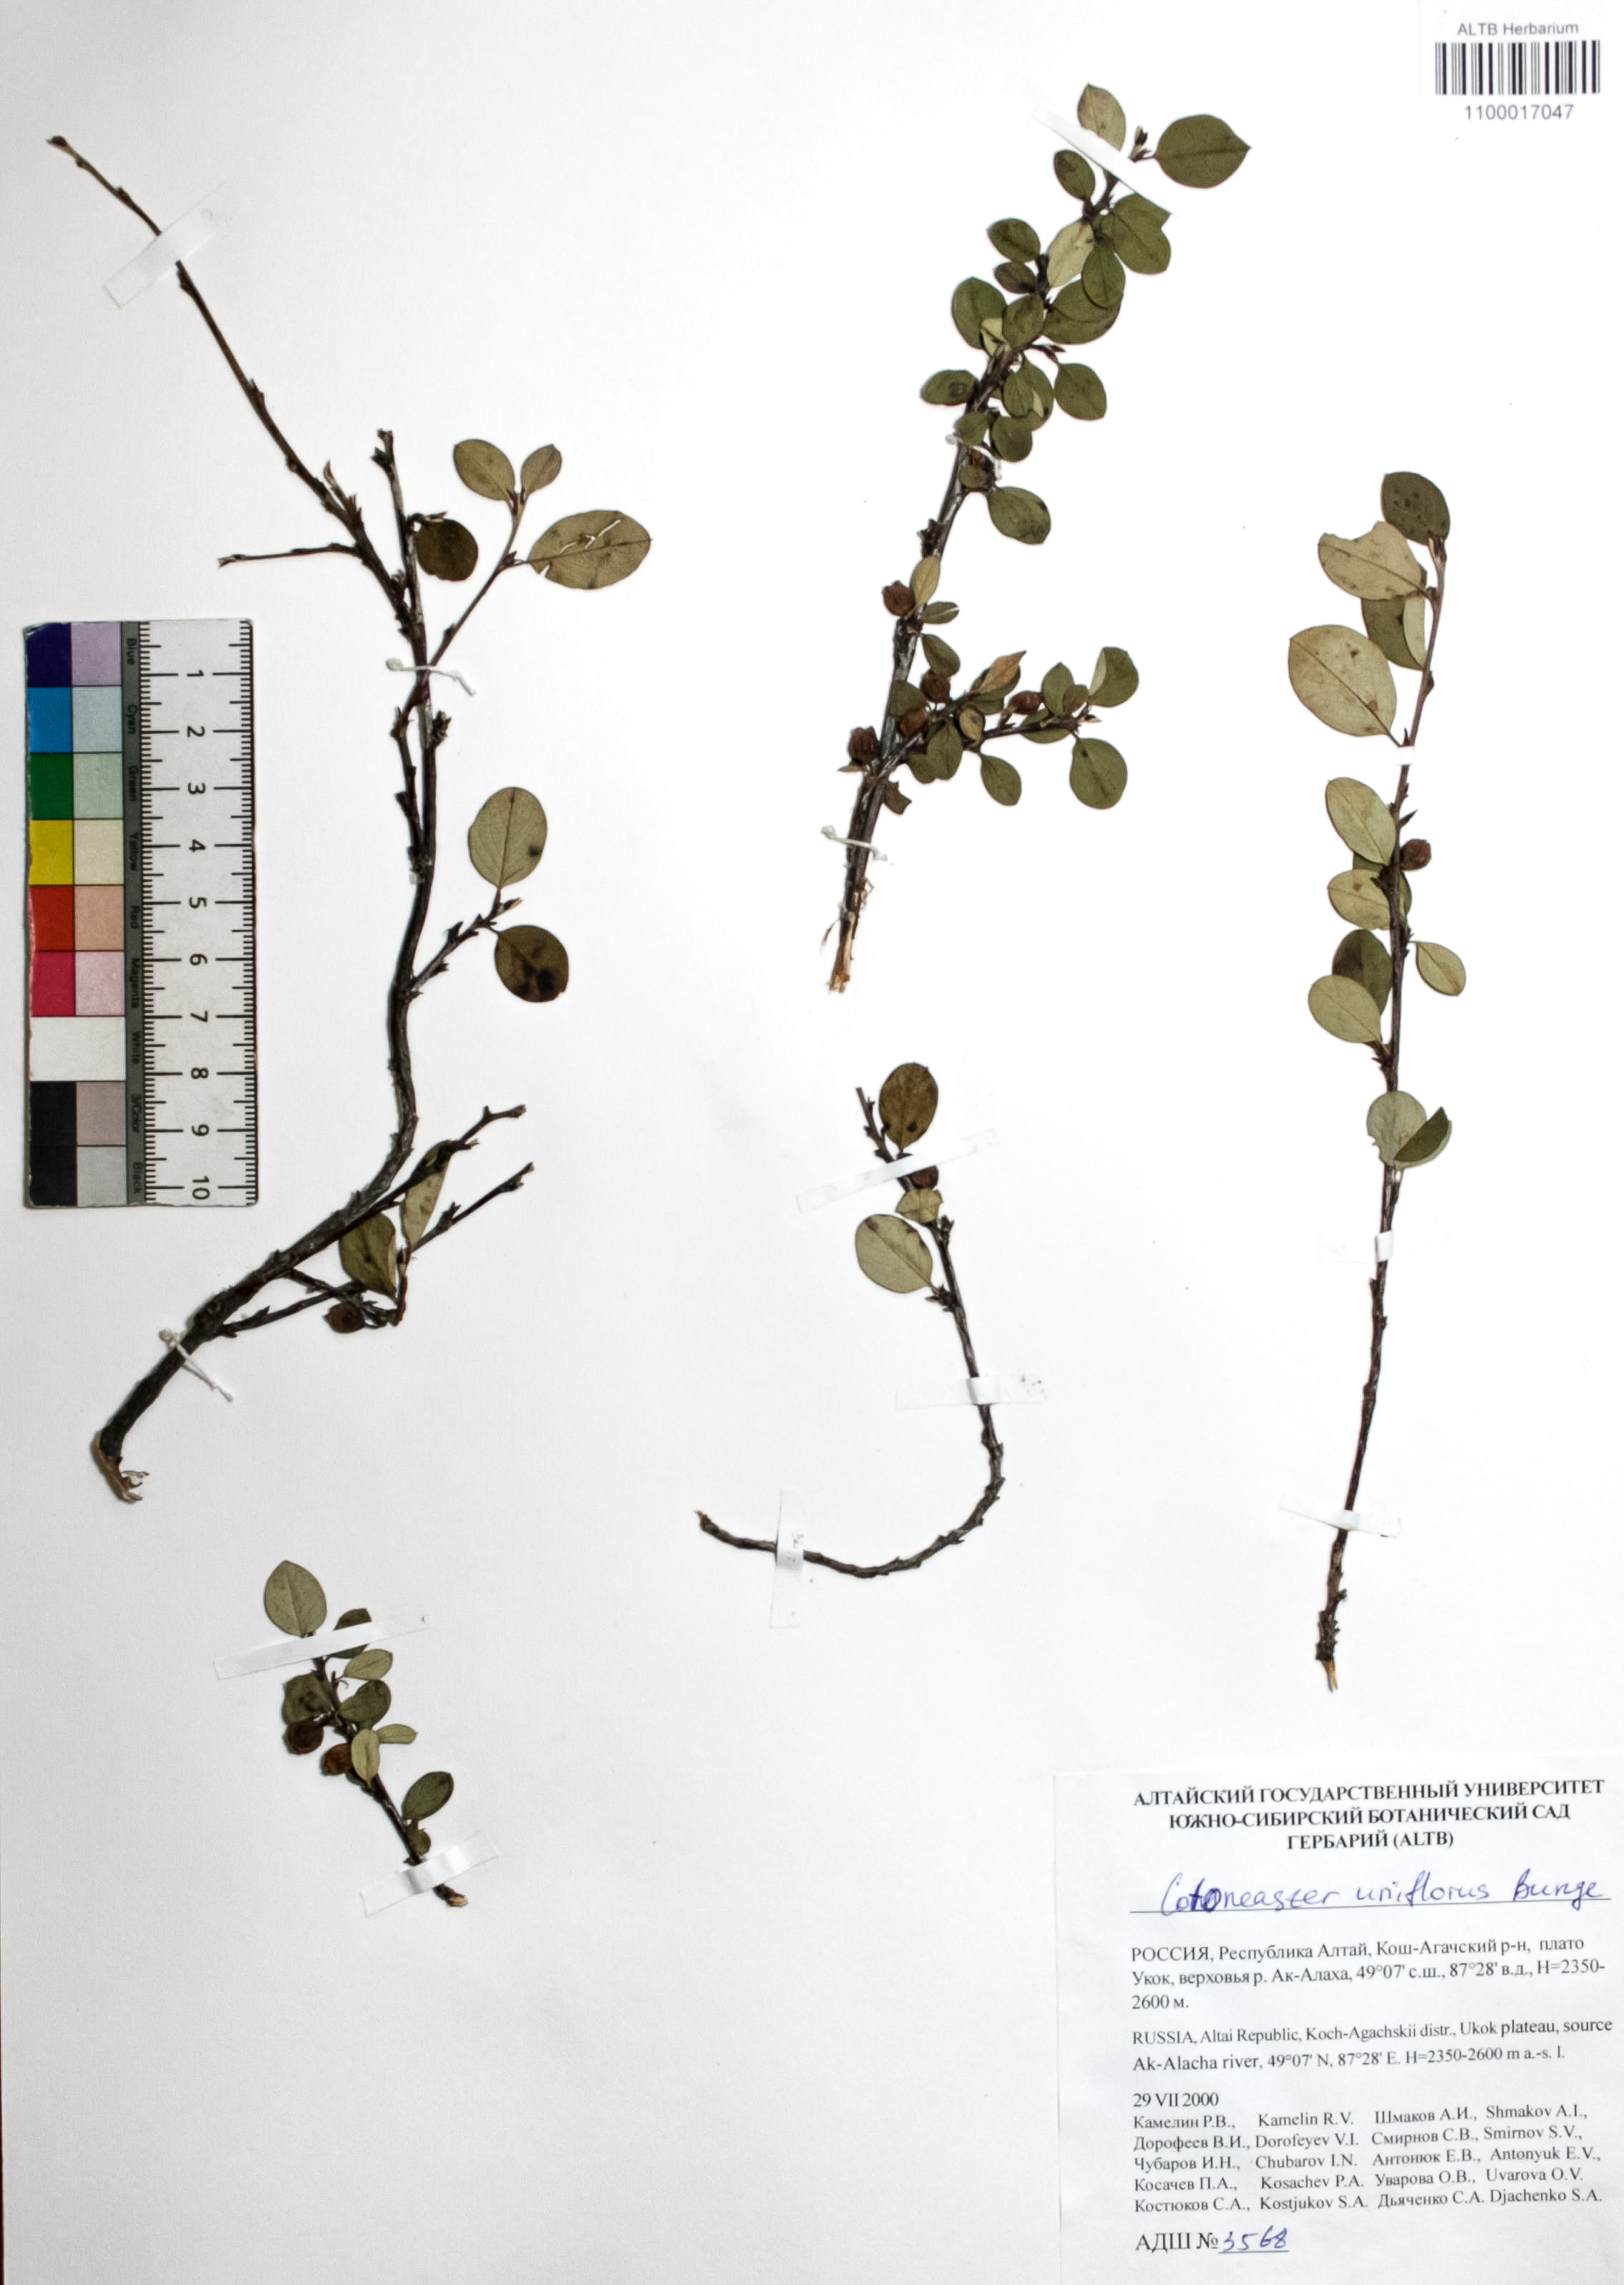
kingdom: Plantae
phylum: Tracheophyta
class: Magnoliopsida
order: Rosales
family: Rosaceae
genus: Cotoneaster
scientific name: Cotoneaster uniflorus
